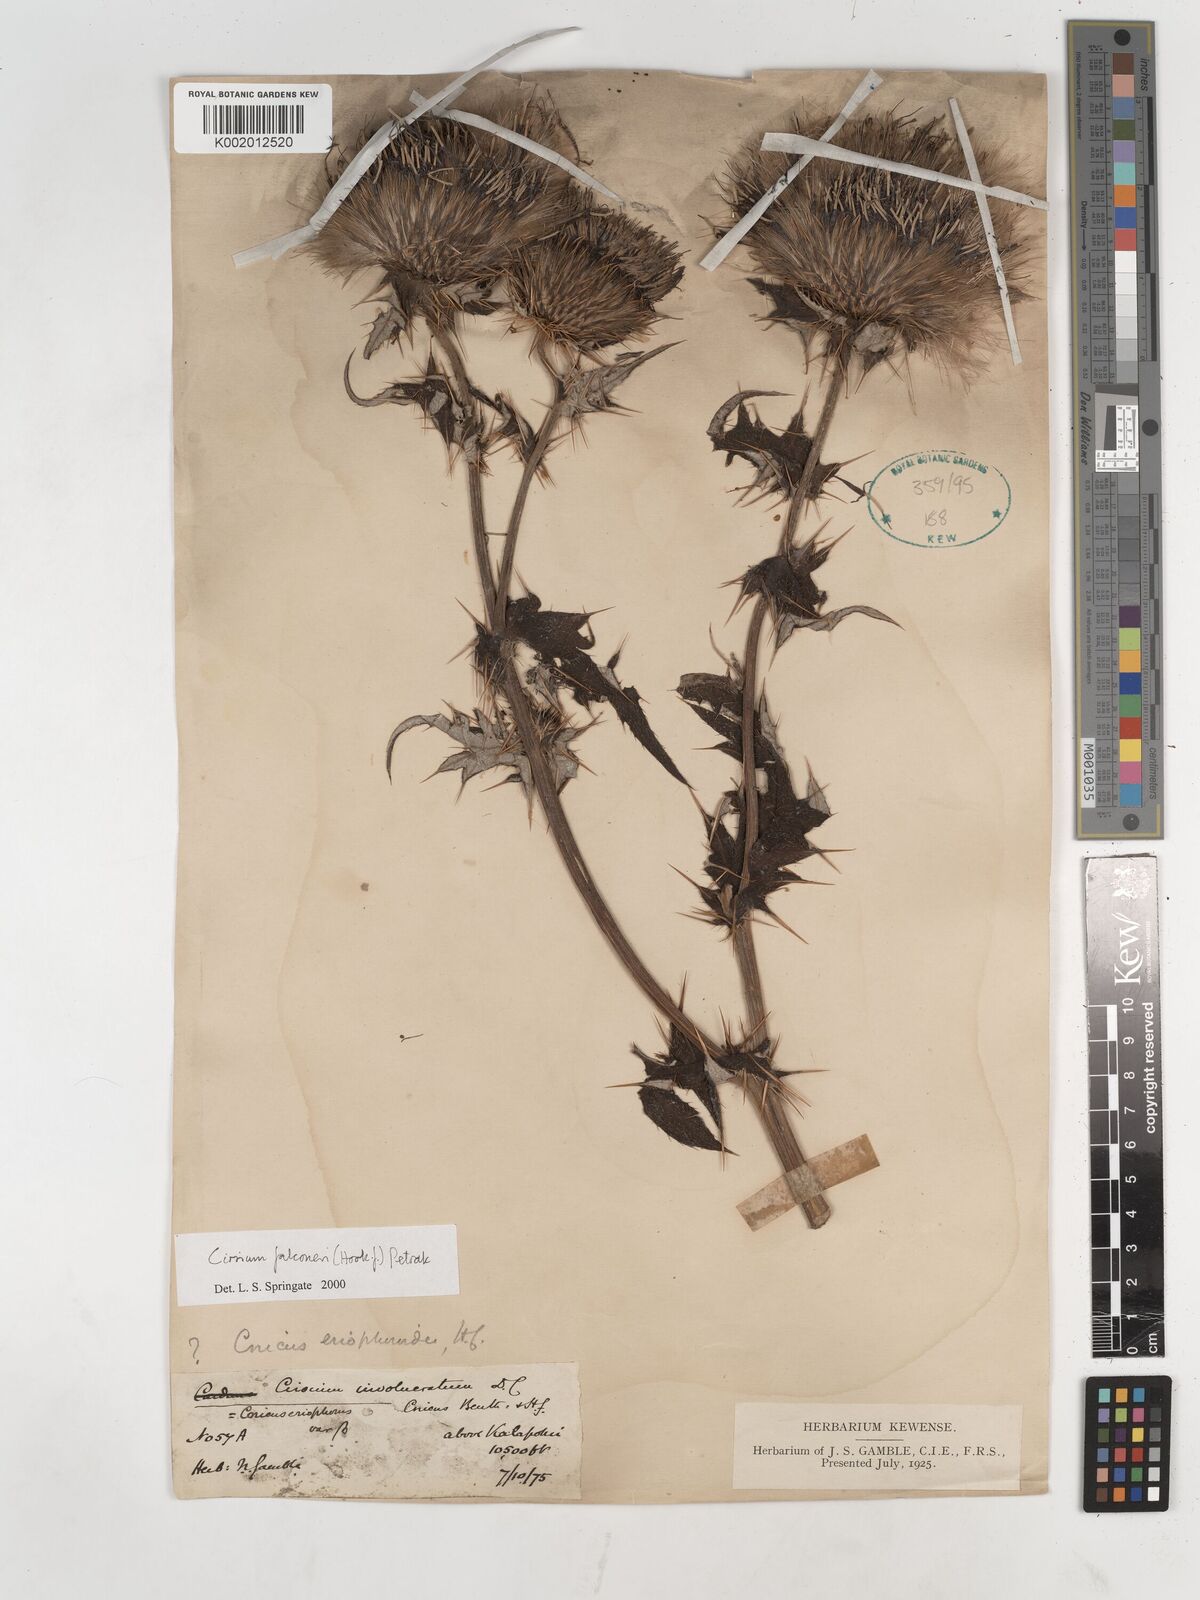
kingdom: Plantae
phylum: Tracheophyta
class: Magnoliopsida
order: Asterales
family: Asteraceae
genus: Cirsium
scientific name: Cirsium falconeri
